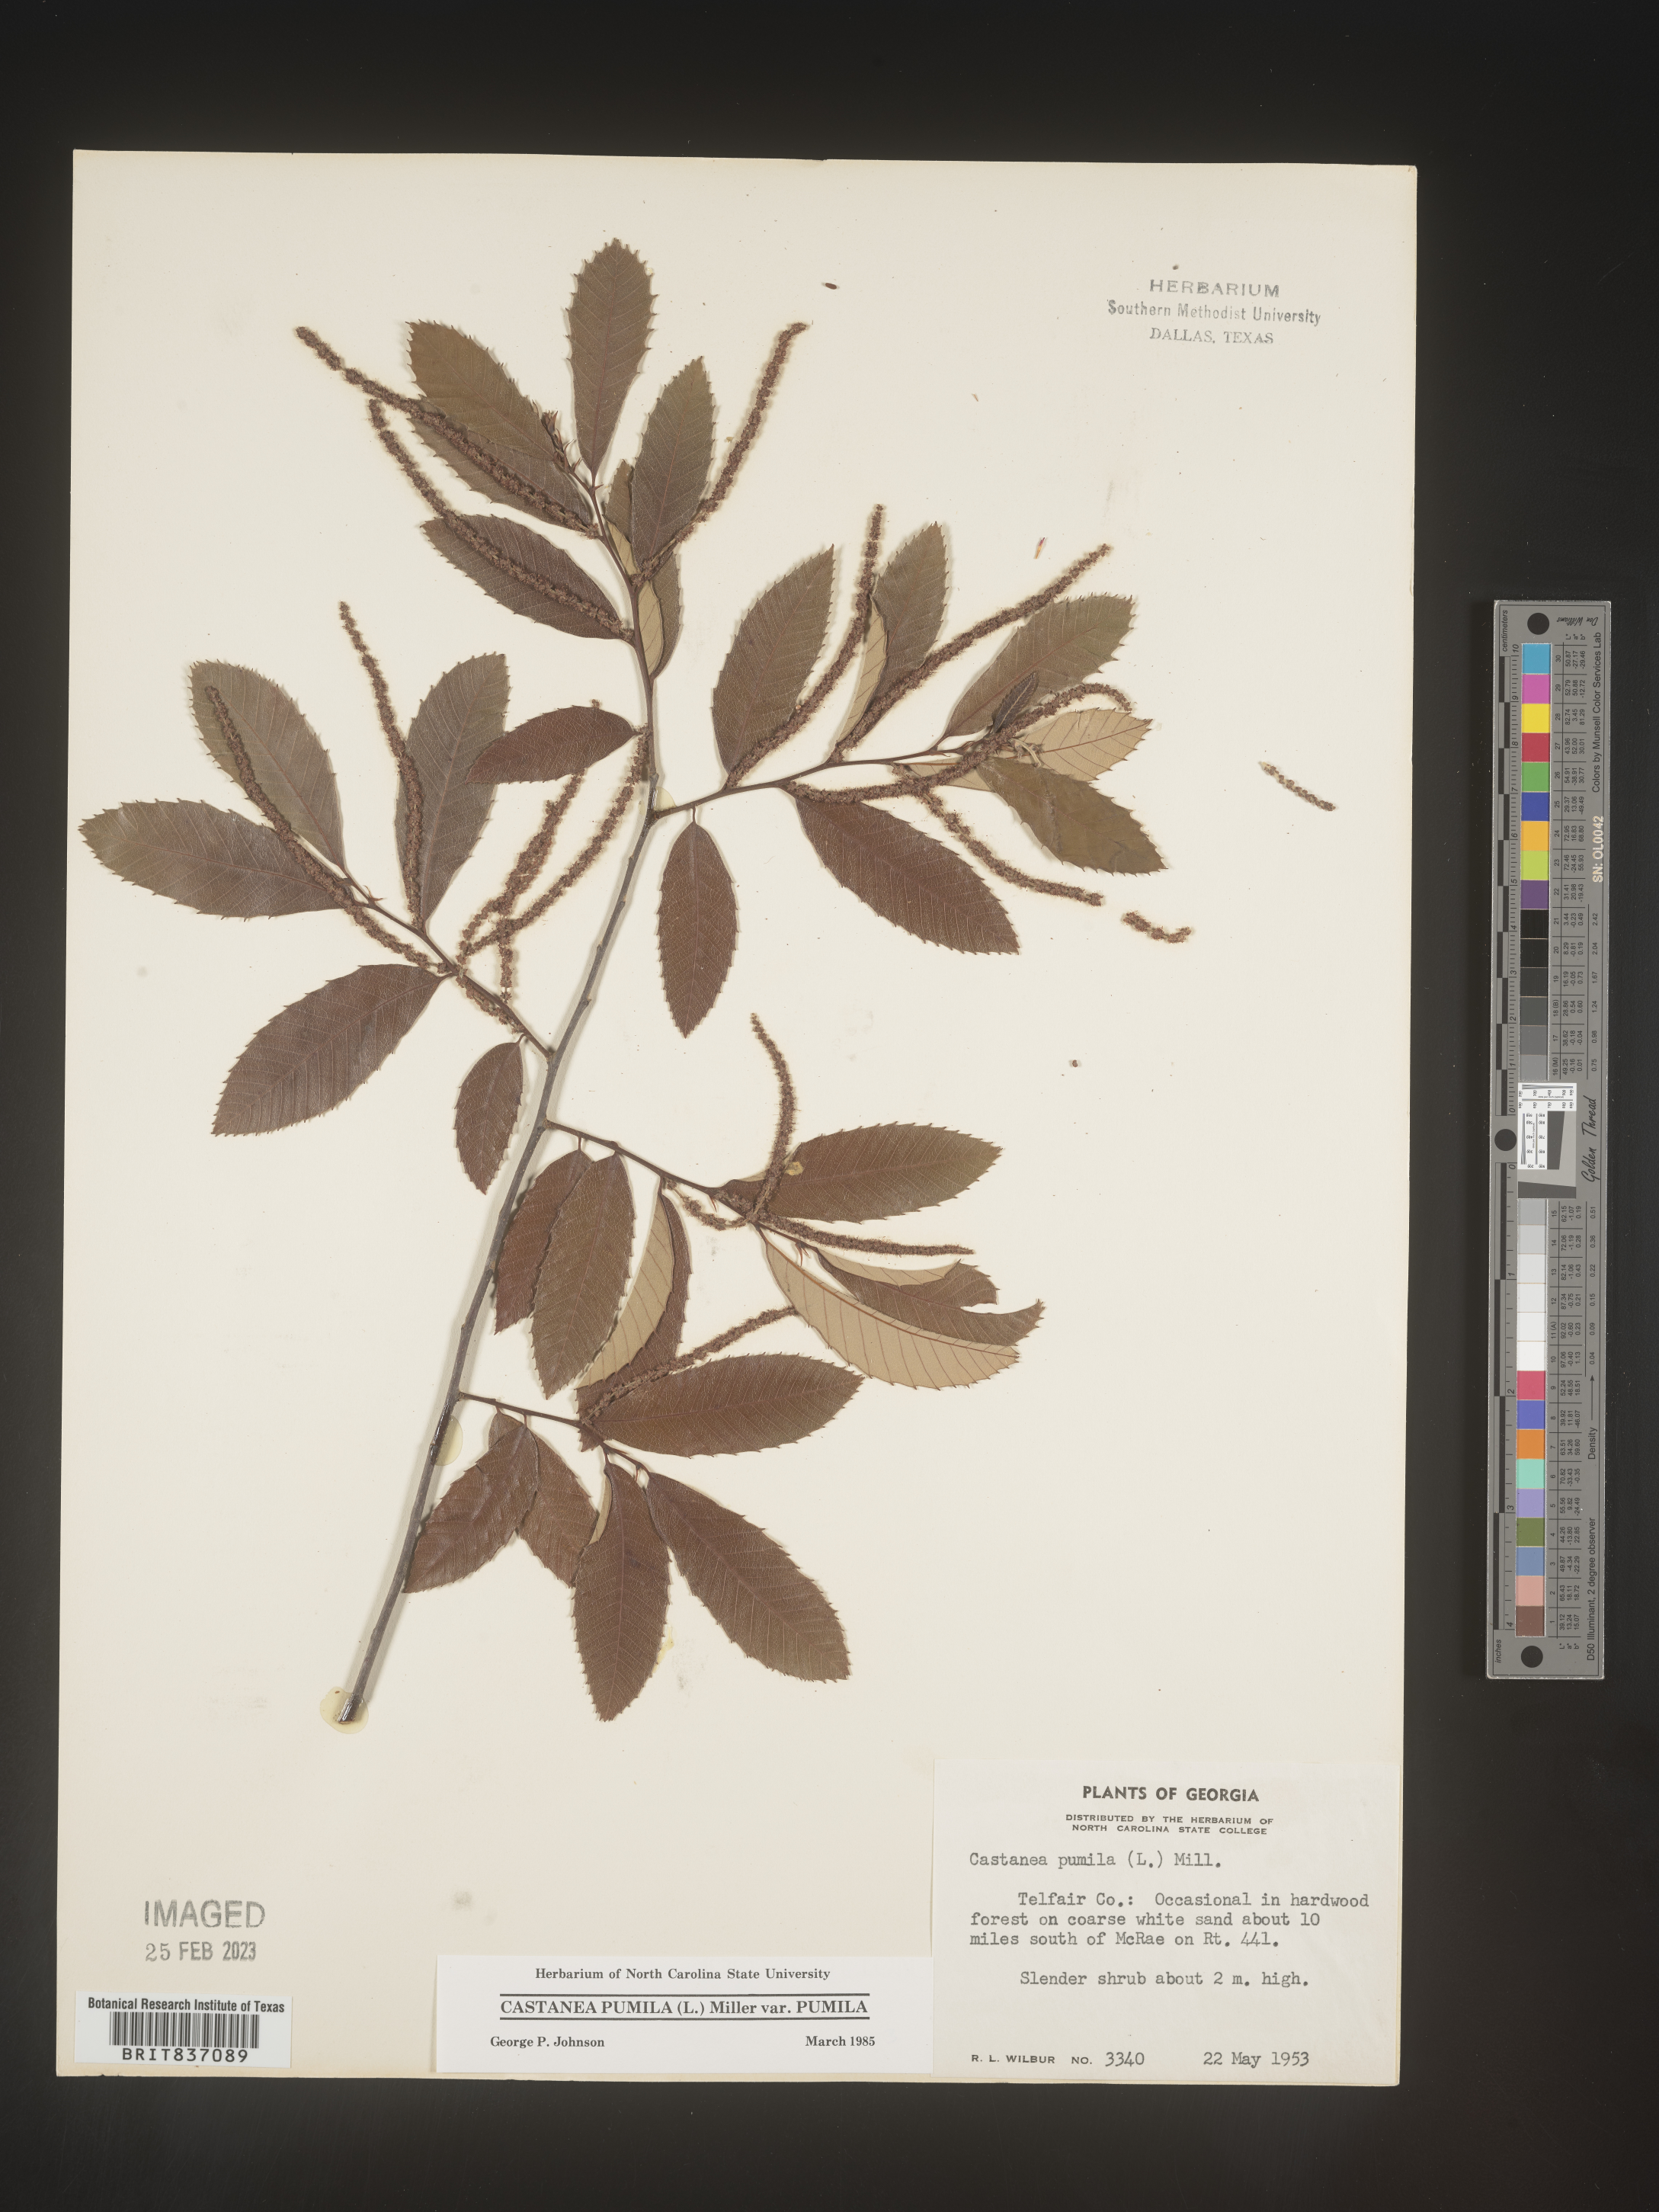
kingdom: Plantae
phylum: Tracheophyta
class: Magnoliopsida
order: Fagales
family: Fagaceae
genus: Castanea
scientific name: Castanea pumila
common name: Chinkapin
